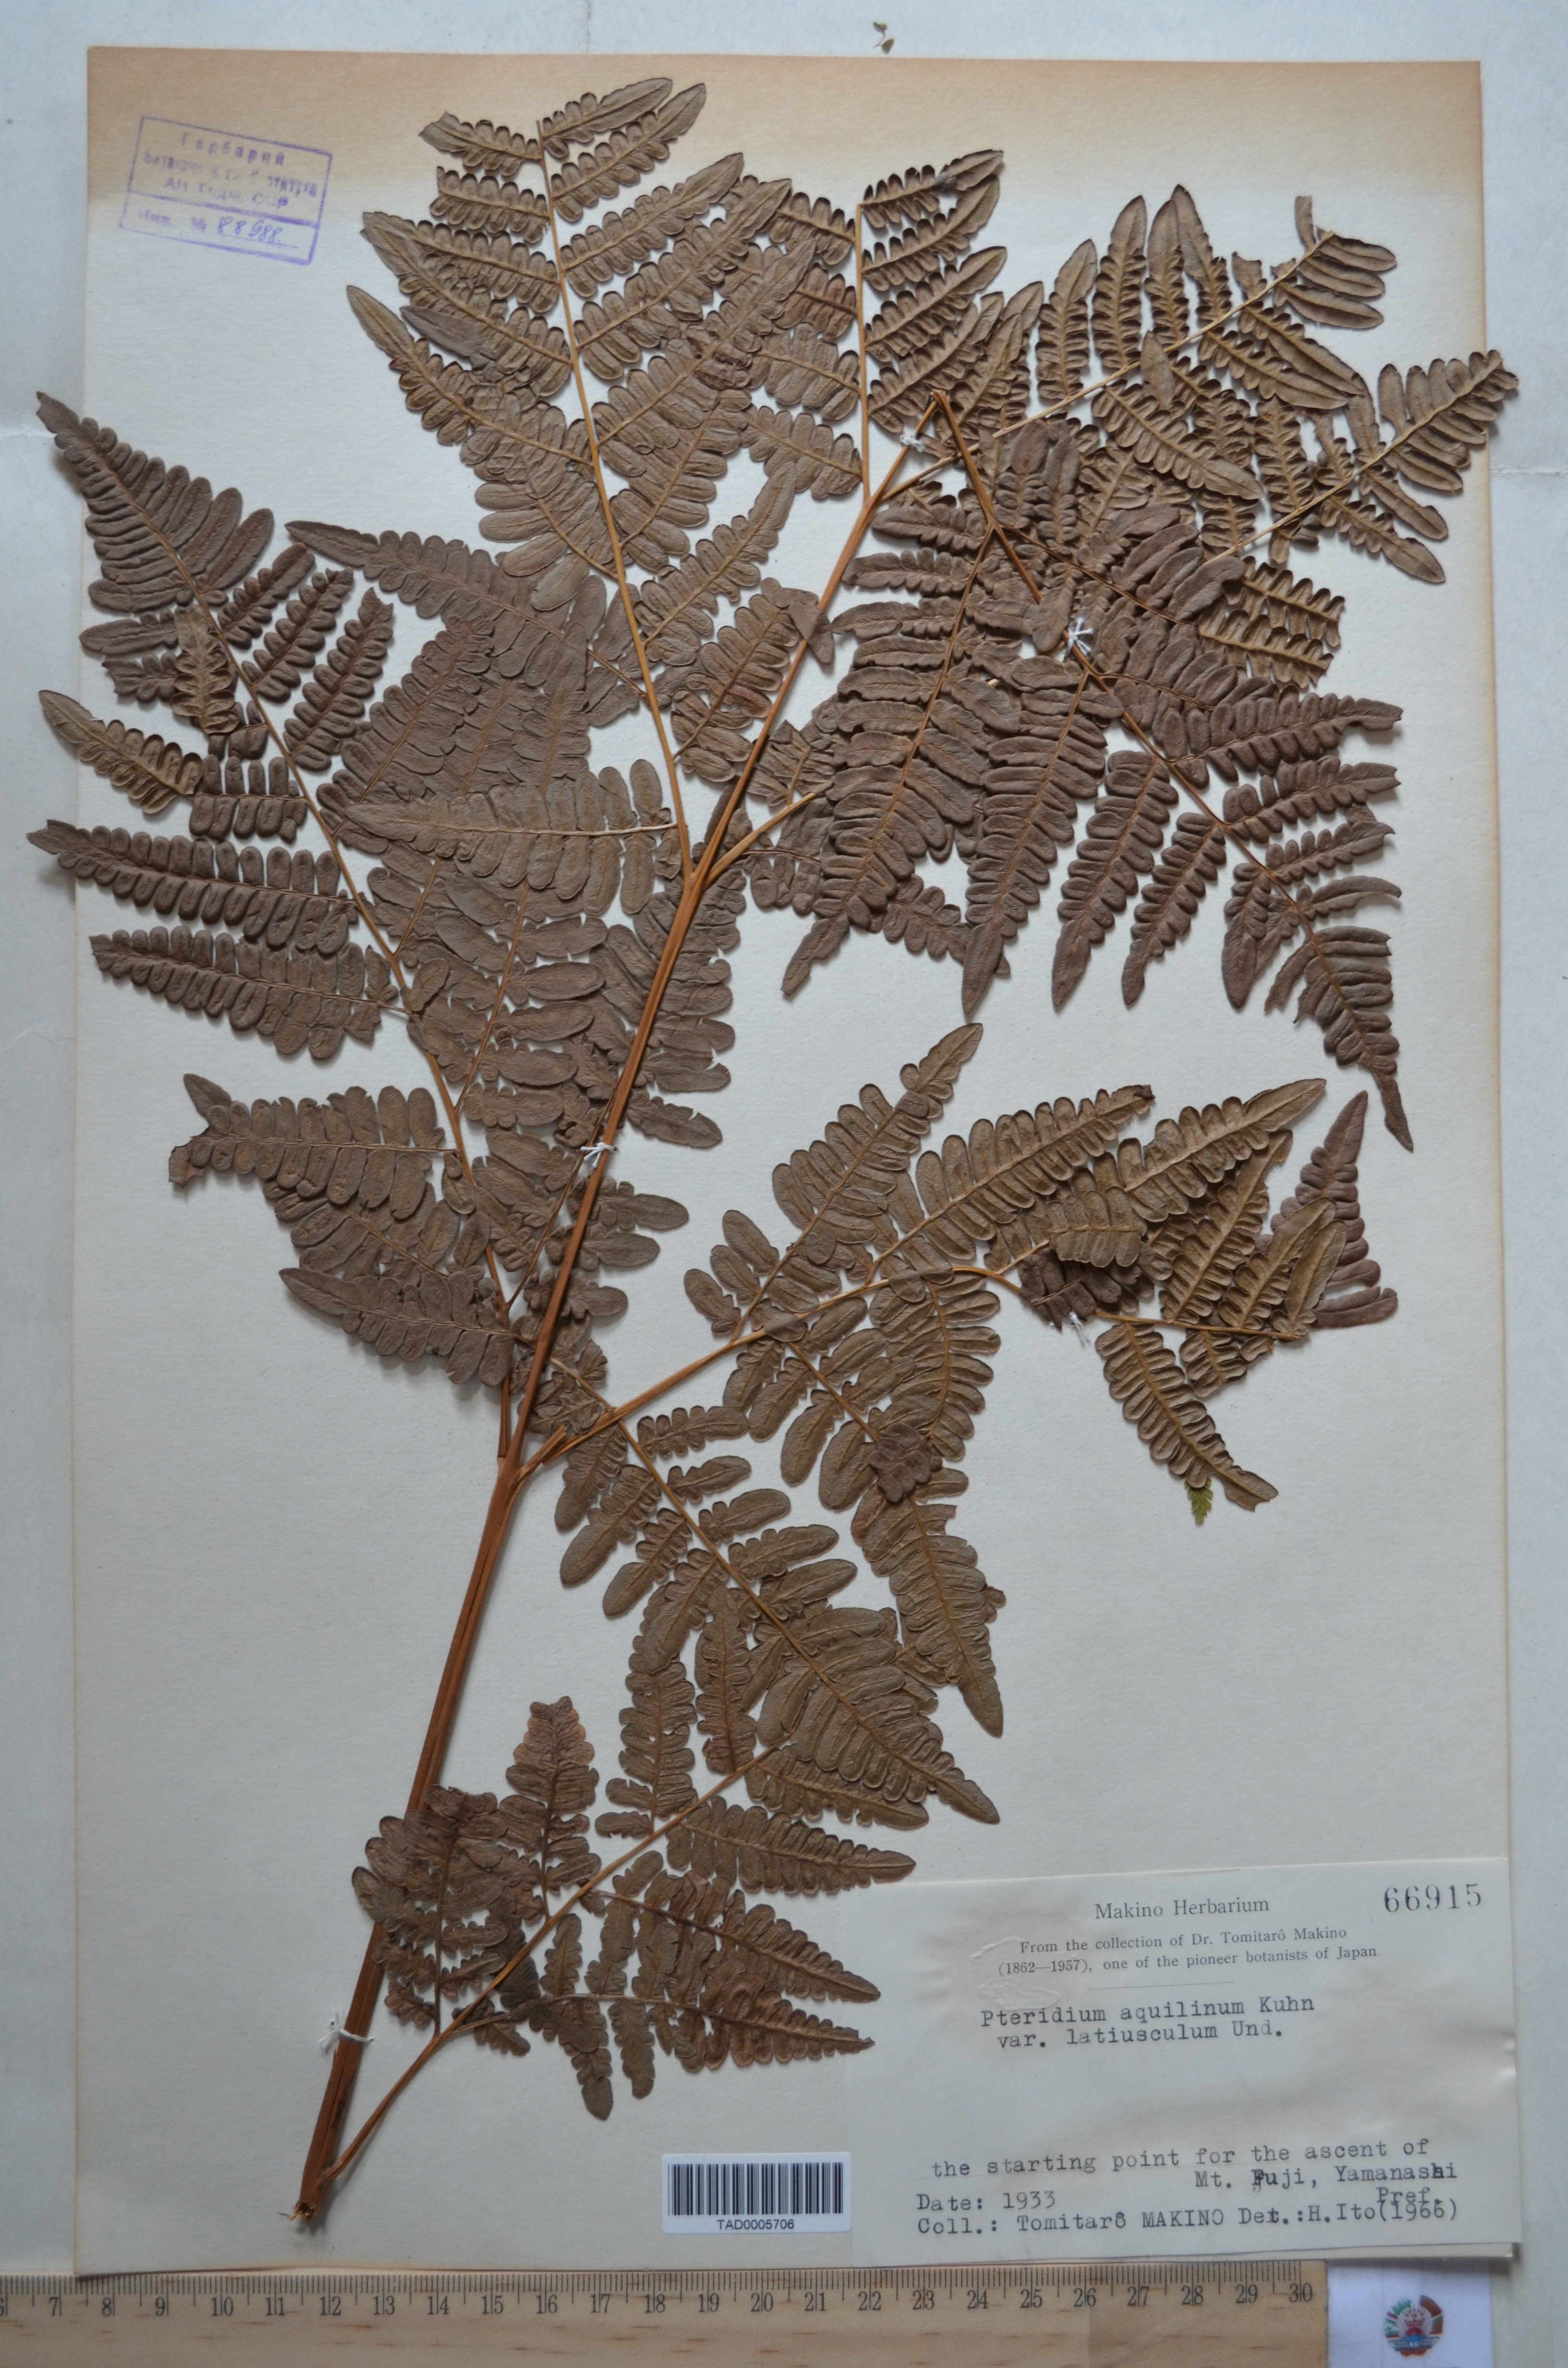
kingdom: Plantae
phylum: Tracheophyta
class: Polypodiopsida
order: Polypodiales
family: Dennstaedtiaceae
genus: Pteridium
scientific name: Pteridium aquilinum
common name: Bracken
